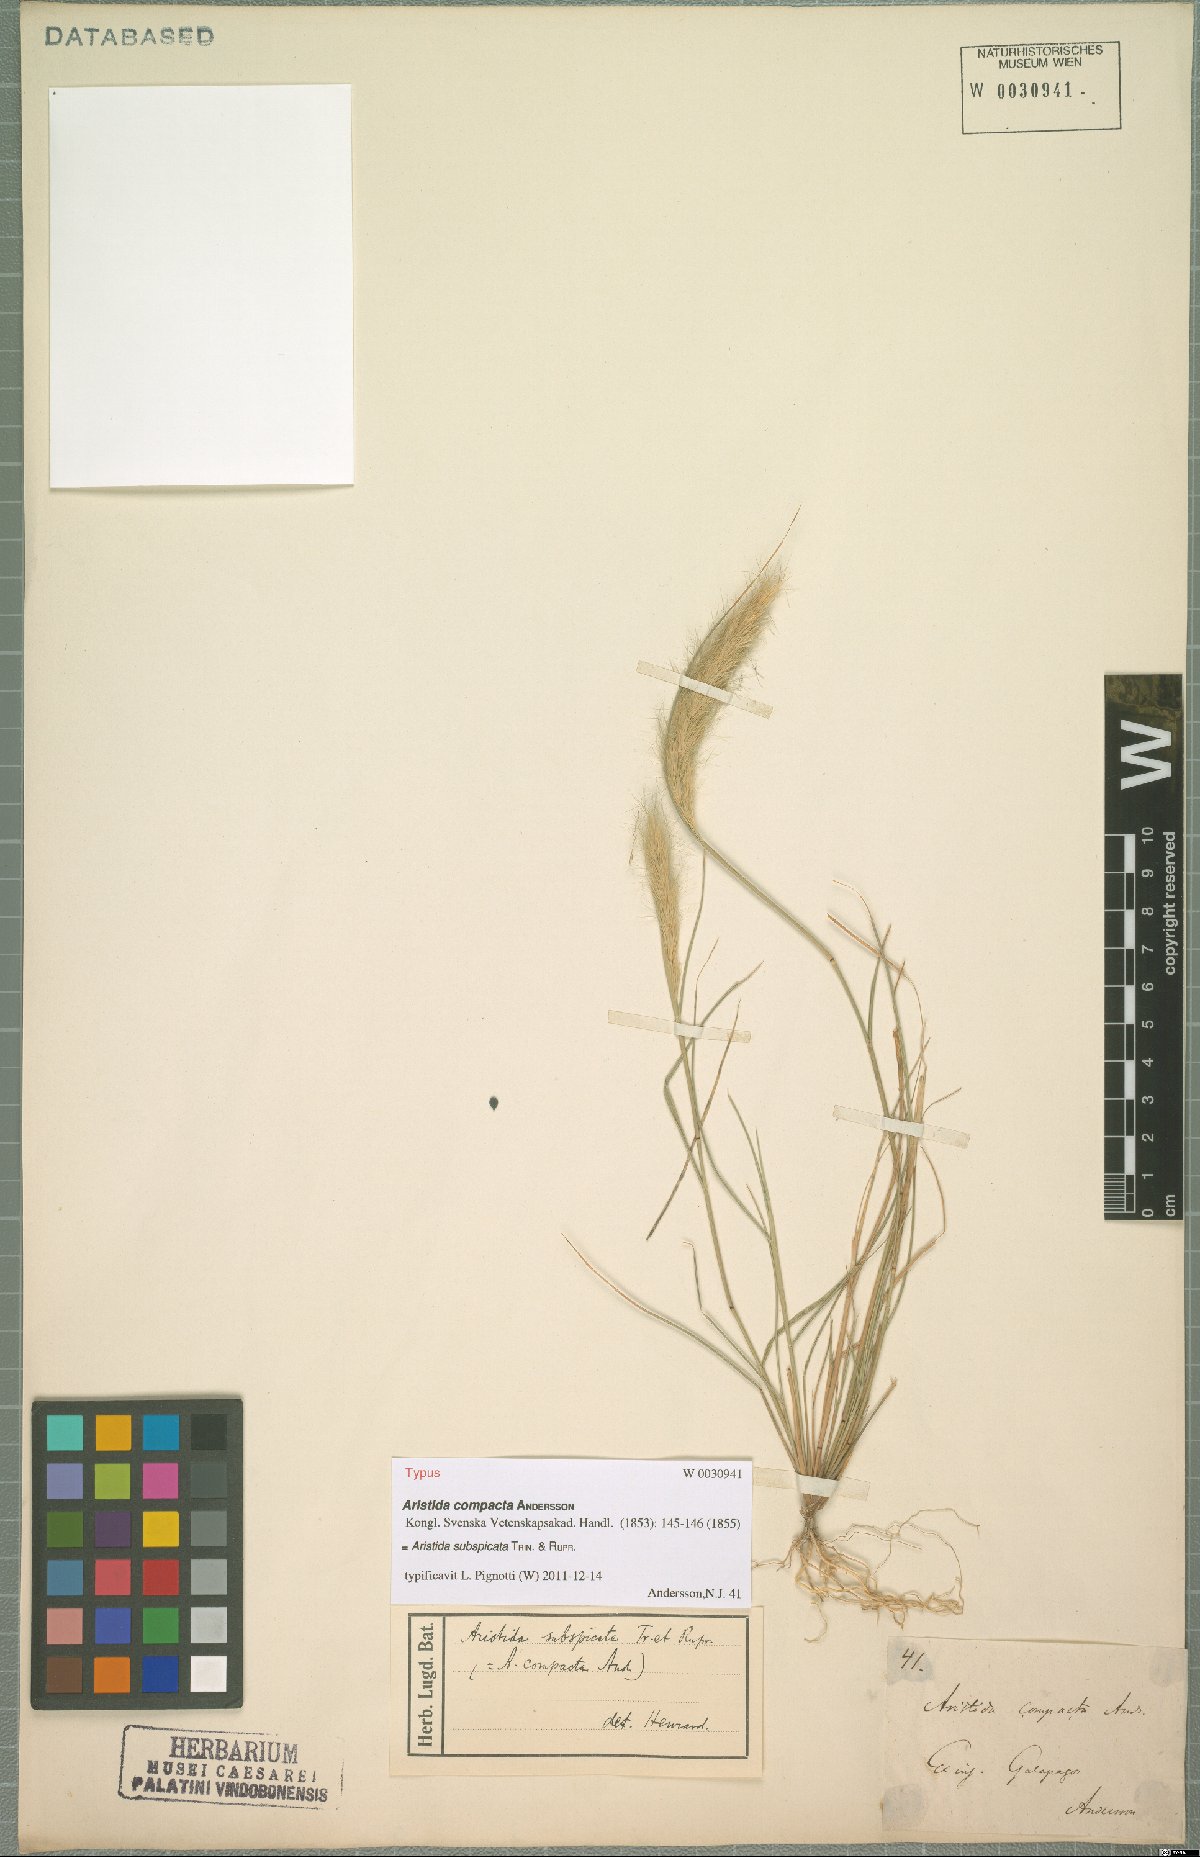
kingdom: Plantae
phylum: Tracheophyta
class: Liliopsida
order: Poales
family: Poaceae
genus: Aristida
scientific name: Aristida subspicata
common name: Galapagos three-awn grass
